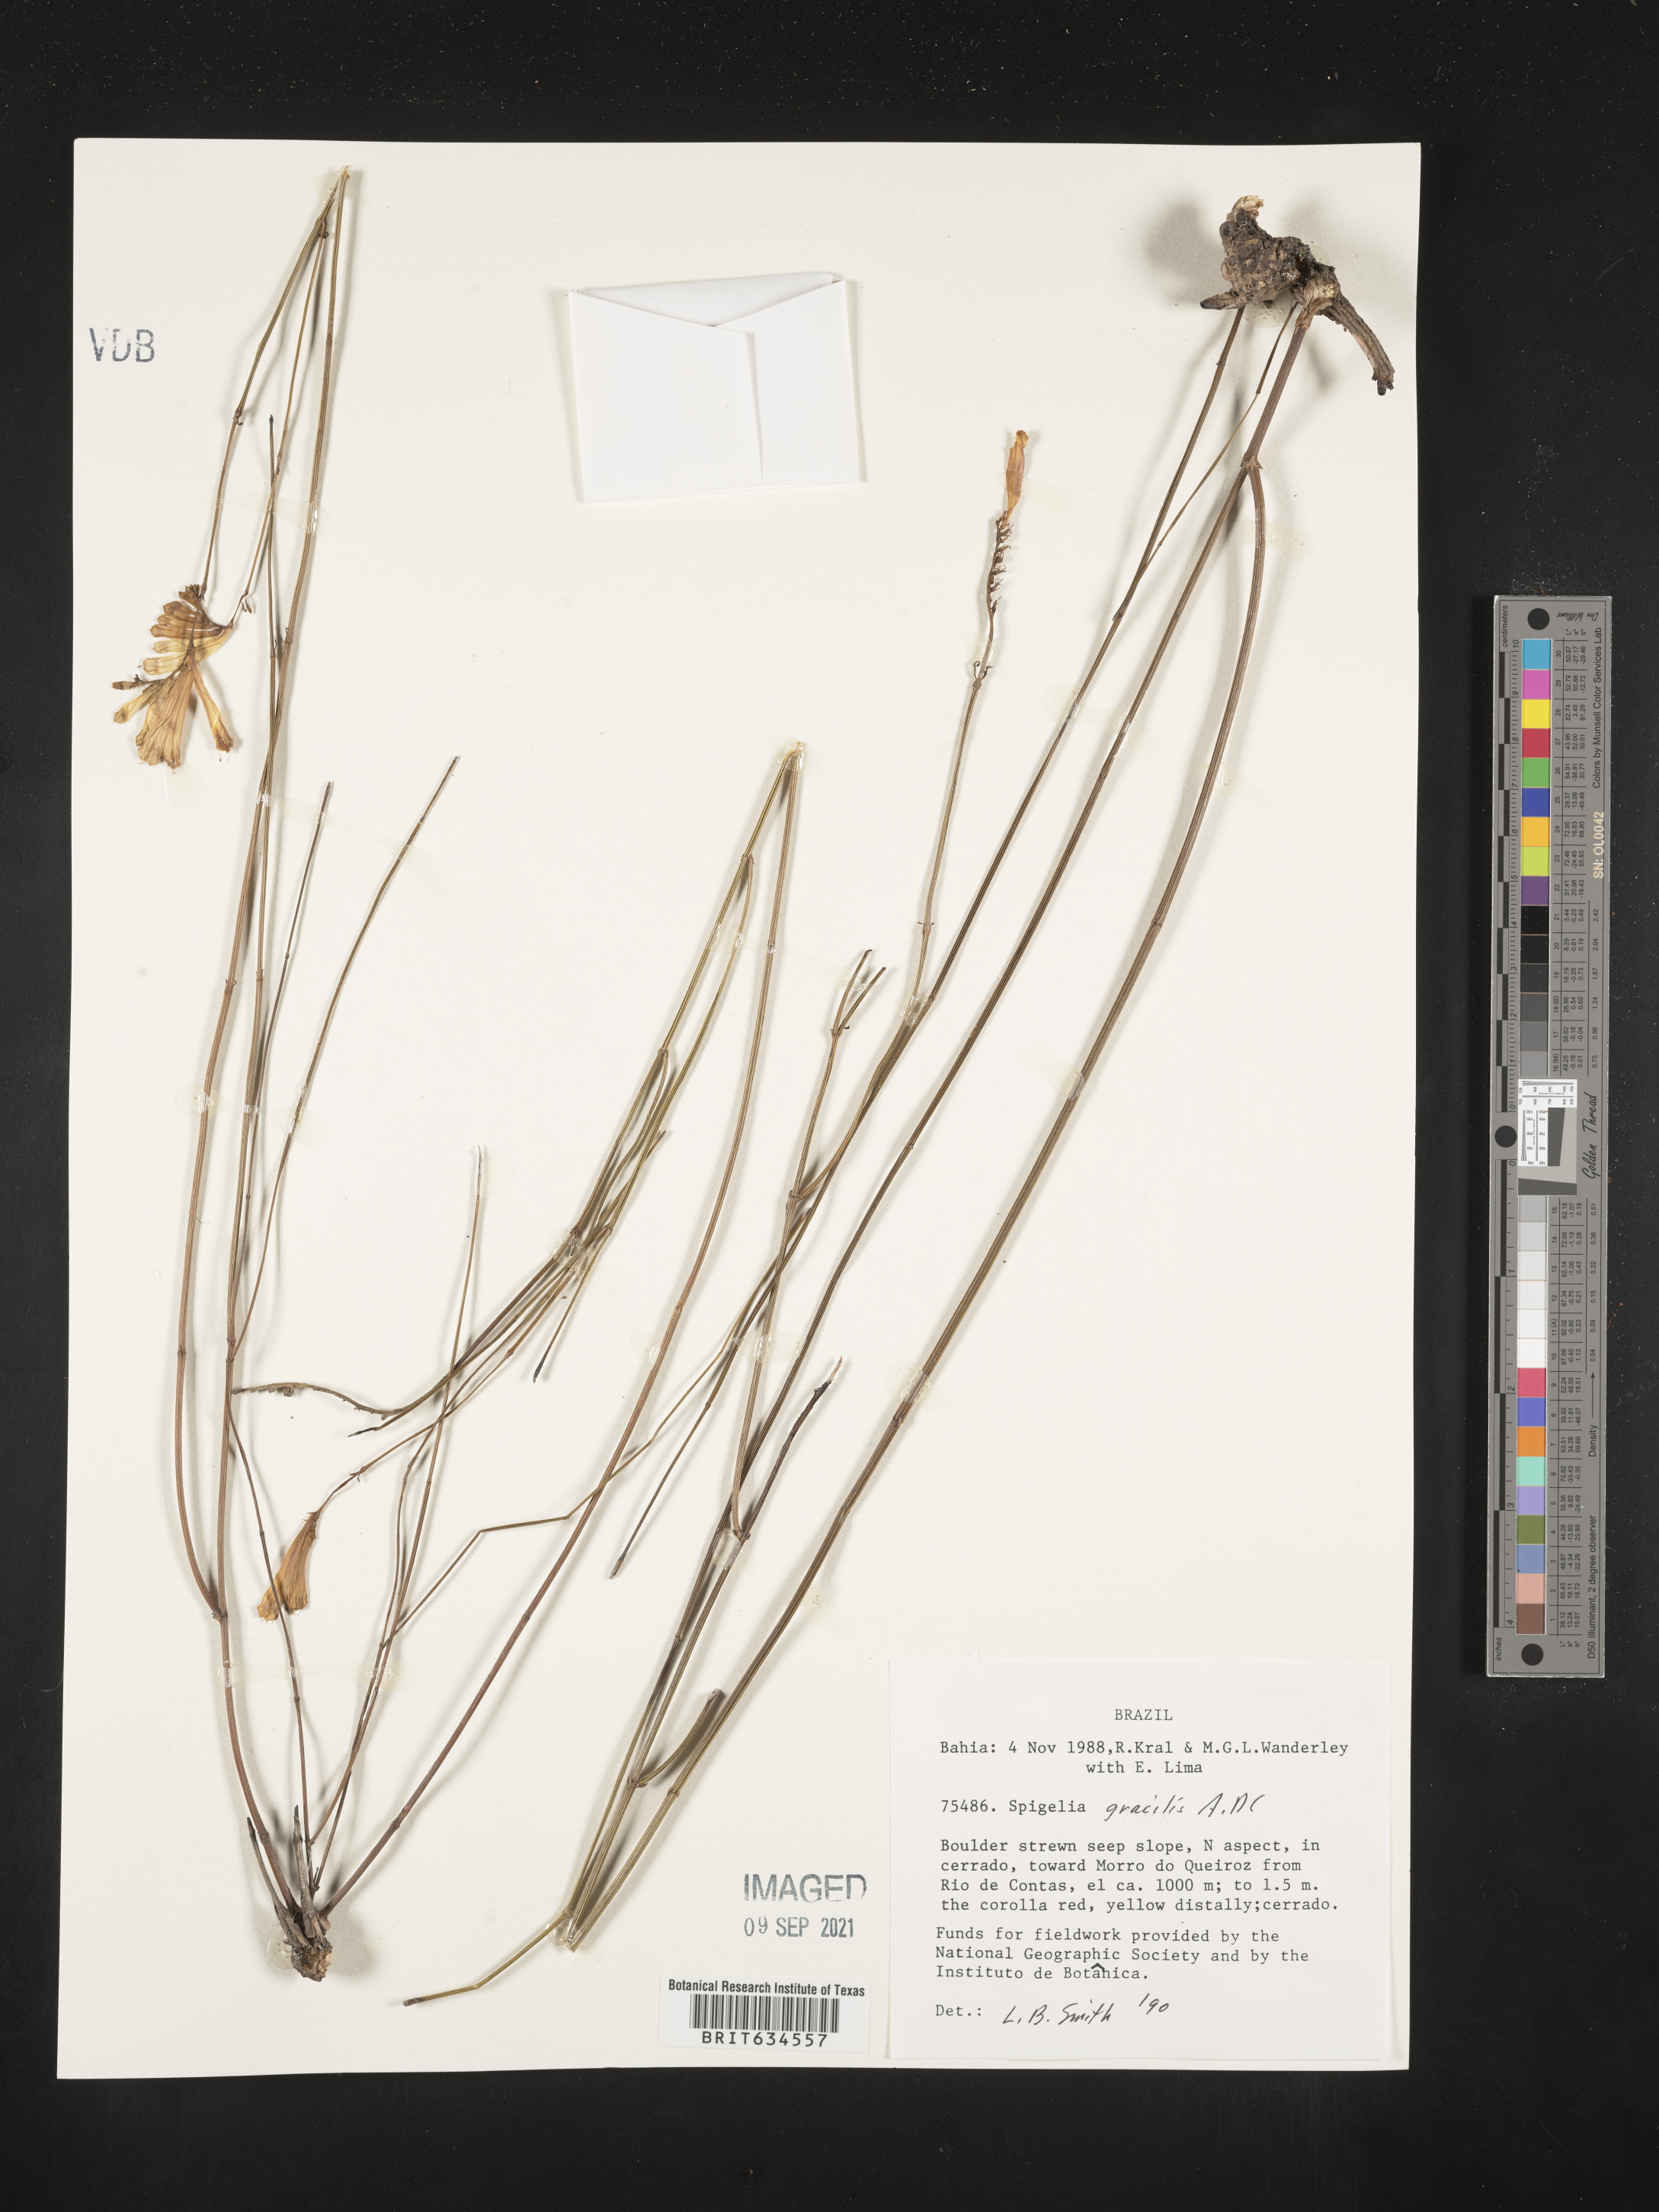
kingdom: Plantae
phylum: Tracheophyta
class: Magnoliopsida
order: Gentianales
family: Loganiaceae
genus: Spigelia
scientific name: Spigelia
